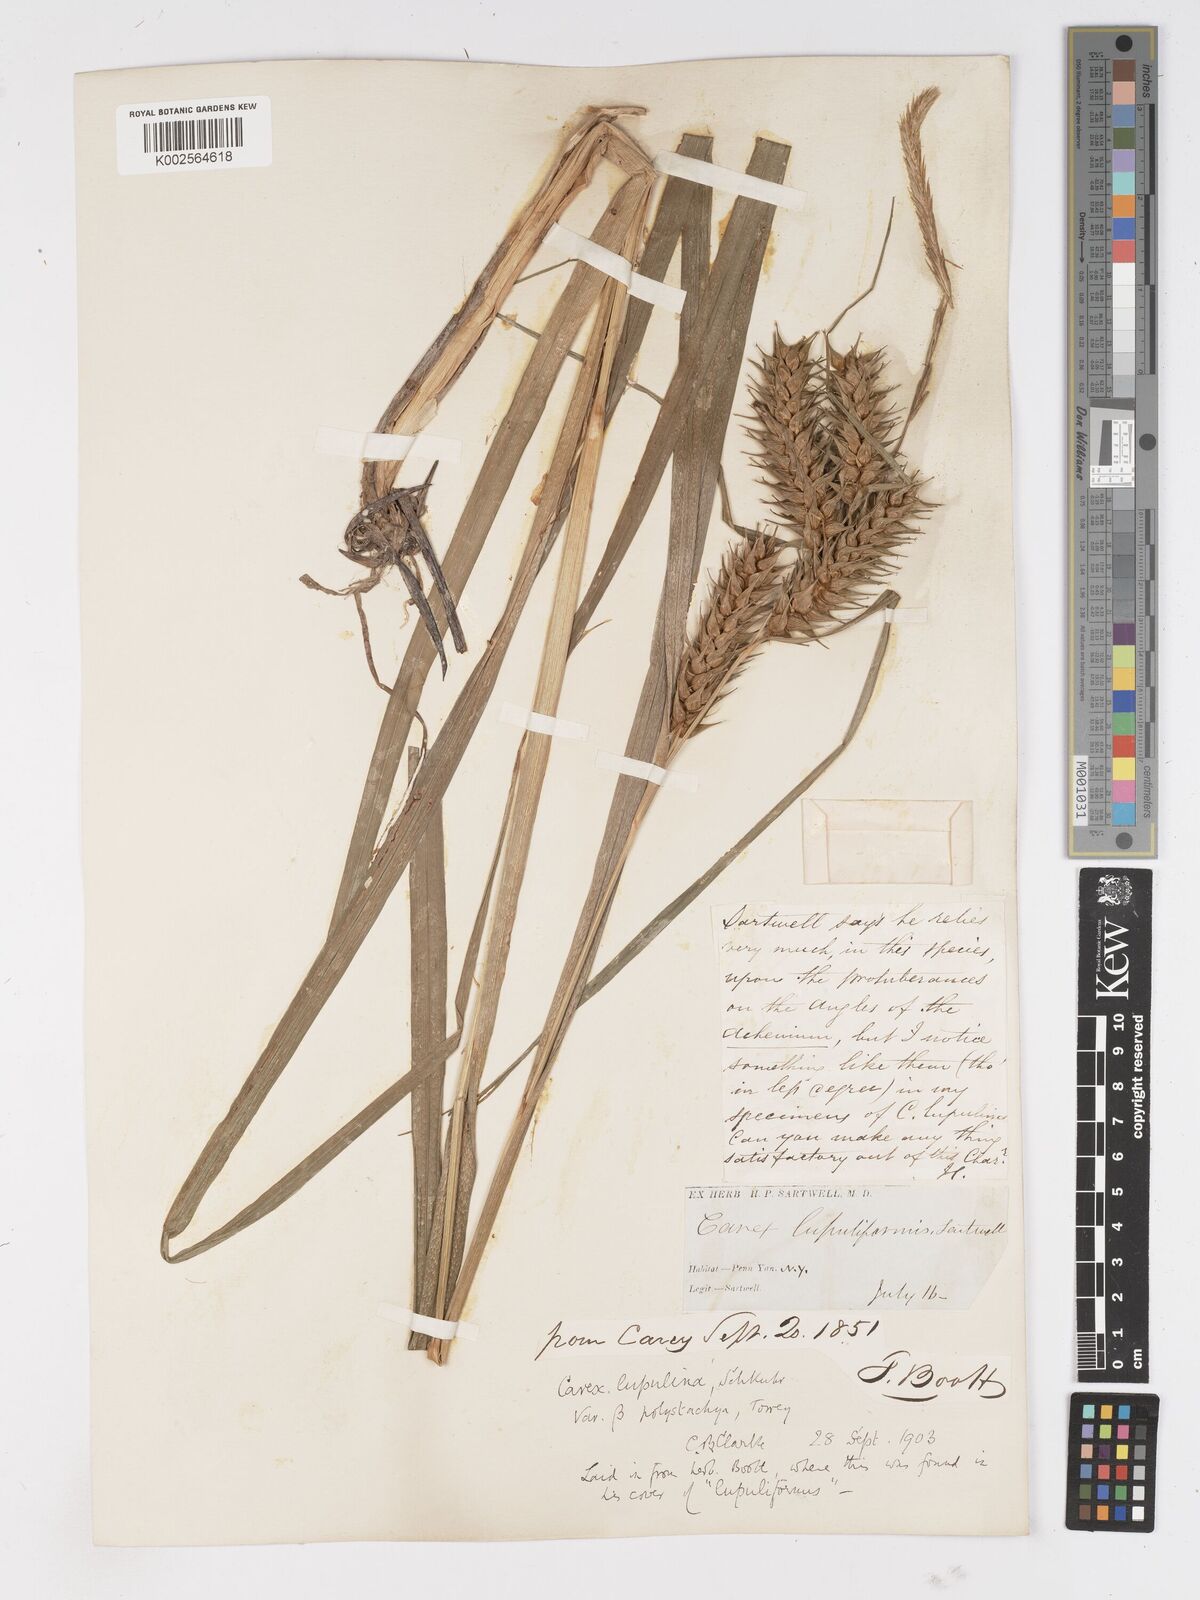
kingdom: Plantae
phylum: Tracheophyta
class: Liliopsida
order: Poales
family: Cyperaceae
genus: Carex
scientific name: Carex lupuliformis
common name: False hop sedge
